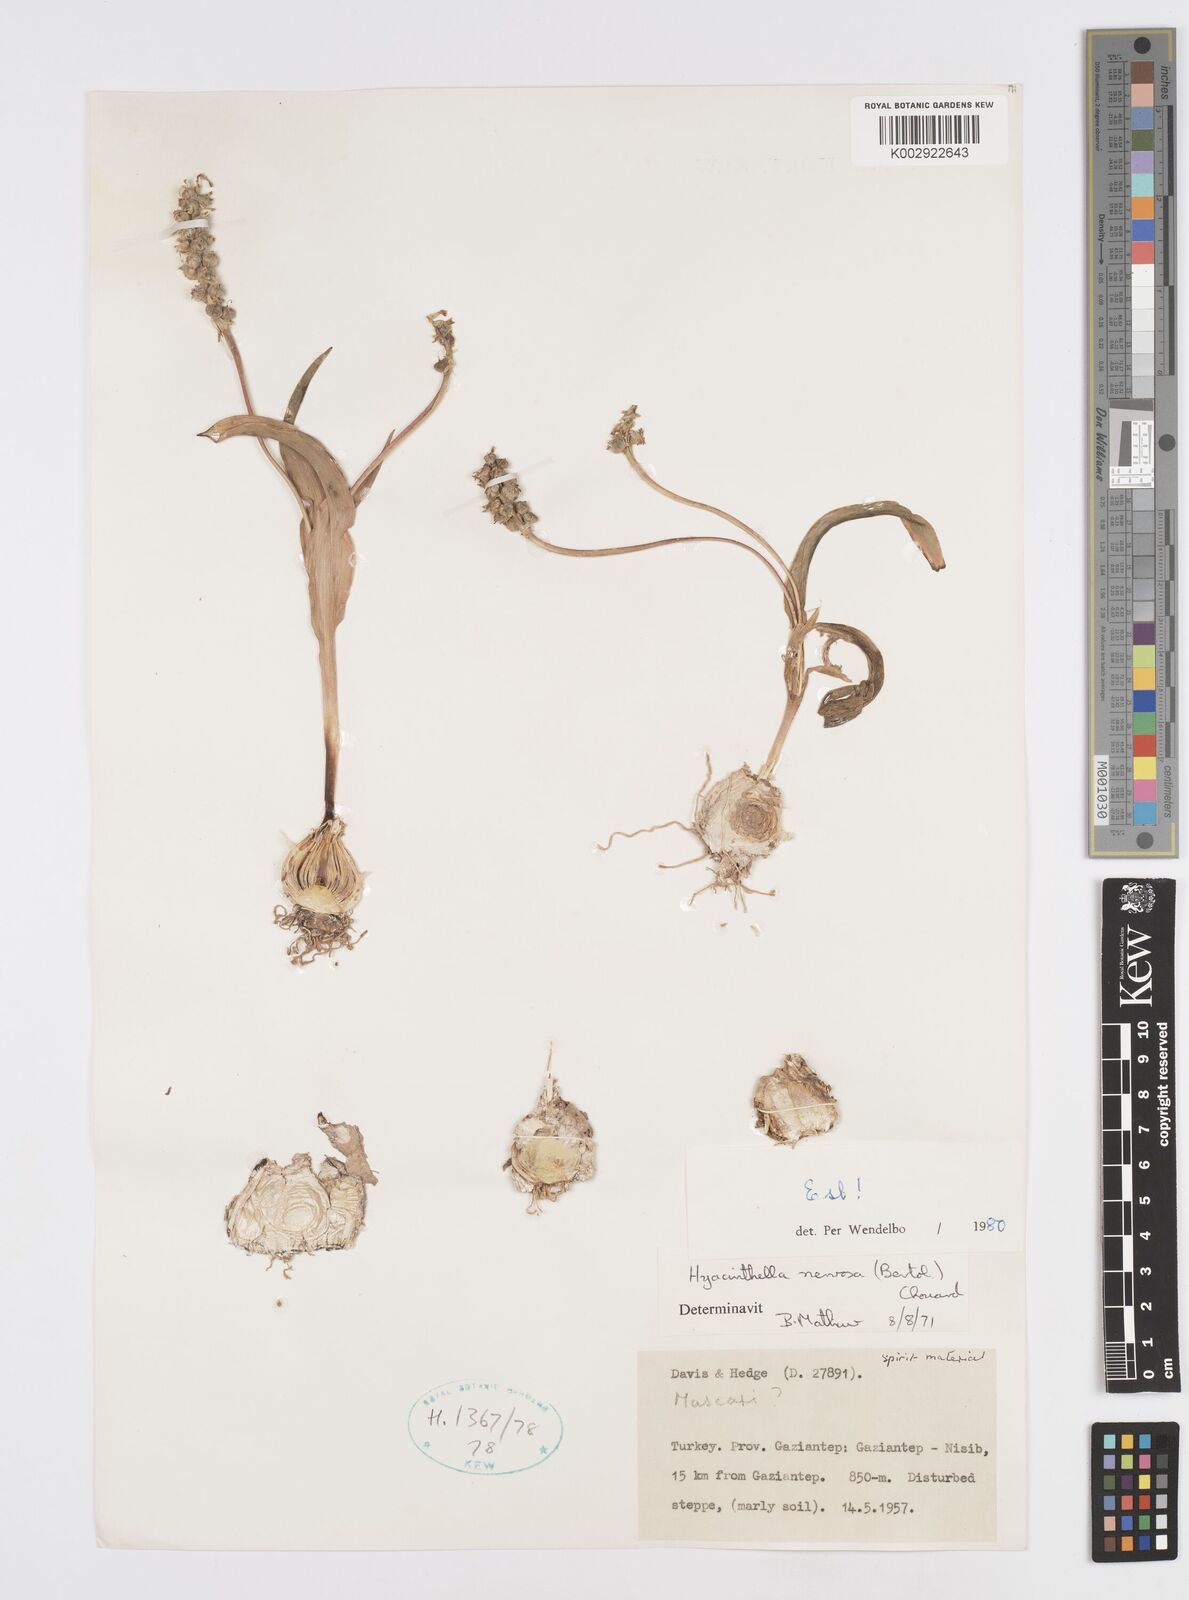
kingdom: Plantae
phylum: Tracheophyta
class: Liliopsida
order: Asparagales
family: Asparagaceae
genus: Hyacinthella
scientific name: Hyacinthella nervosa
